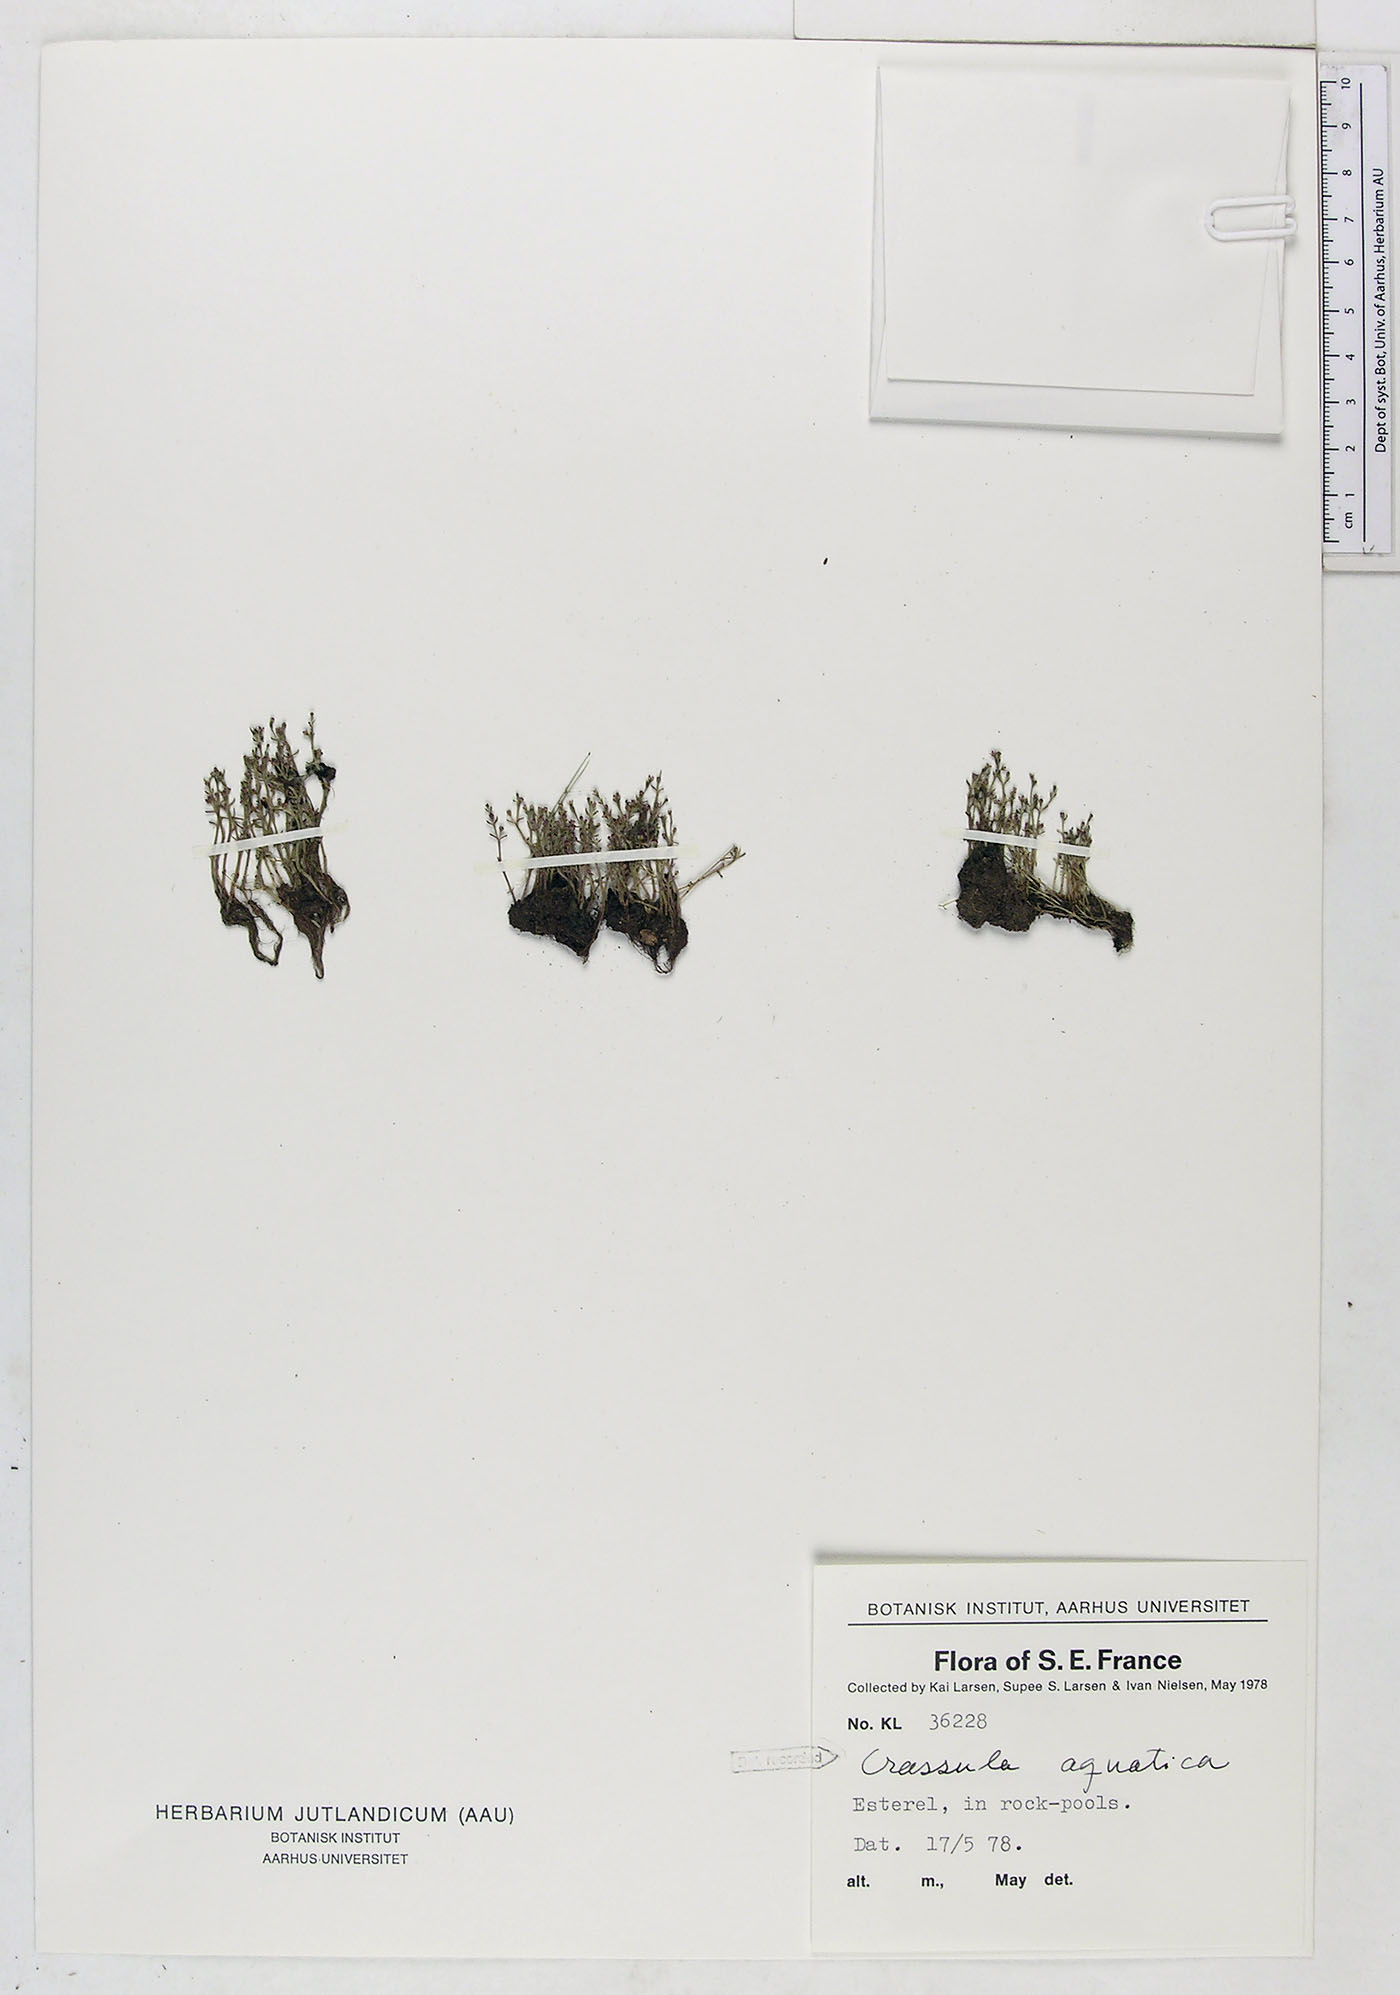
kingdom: Plantae
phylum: Tracheophyta
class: Magnoliopsida
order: Saxifragales
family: Crassulaceae
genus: Crassula
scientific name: Crassula vaillantii
